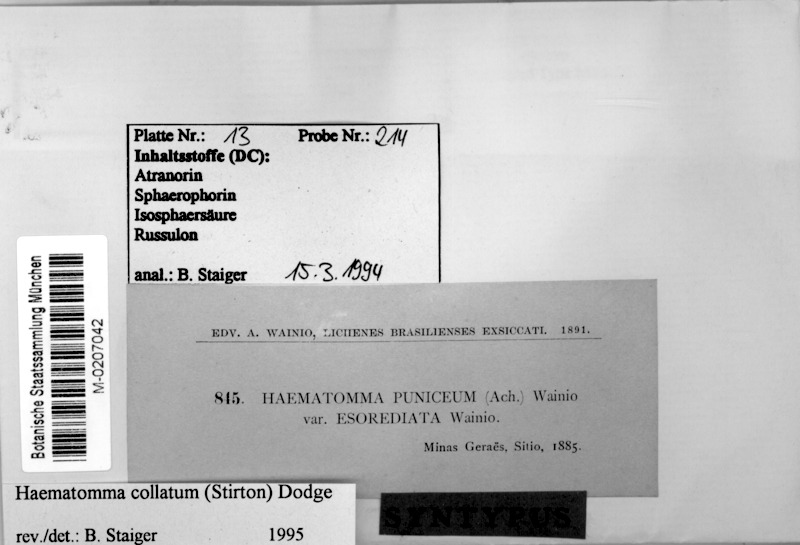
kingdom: Fungi
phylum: Ascomycota
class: Lecanoromycetes
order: Lecanorales
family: Haematommataceae
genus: Haematomma
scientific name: Haematomma collatum
